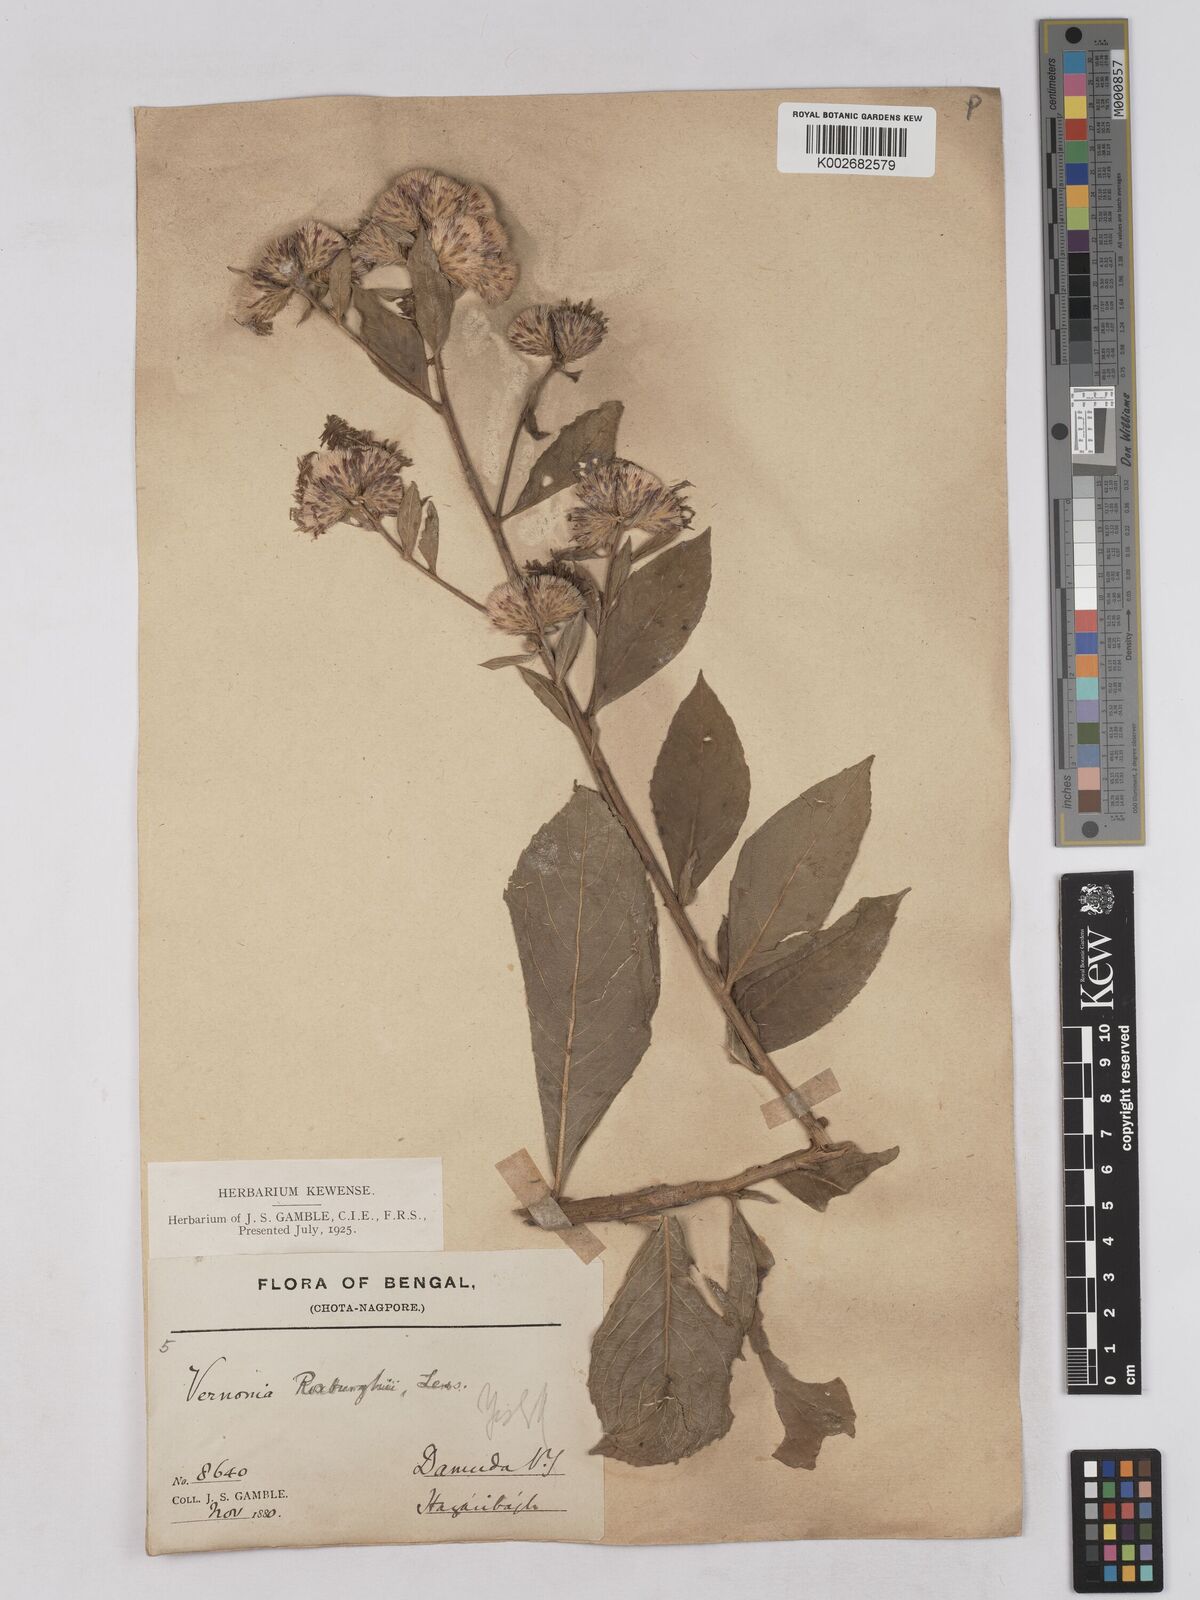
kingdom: Plantae
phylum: Tracheophyta
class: Magnoliopsida
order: Asterales
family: Asteraceae
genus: Acilepis
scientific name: Acilepis aspera
